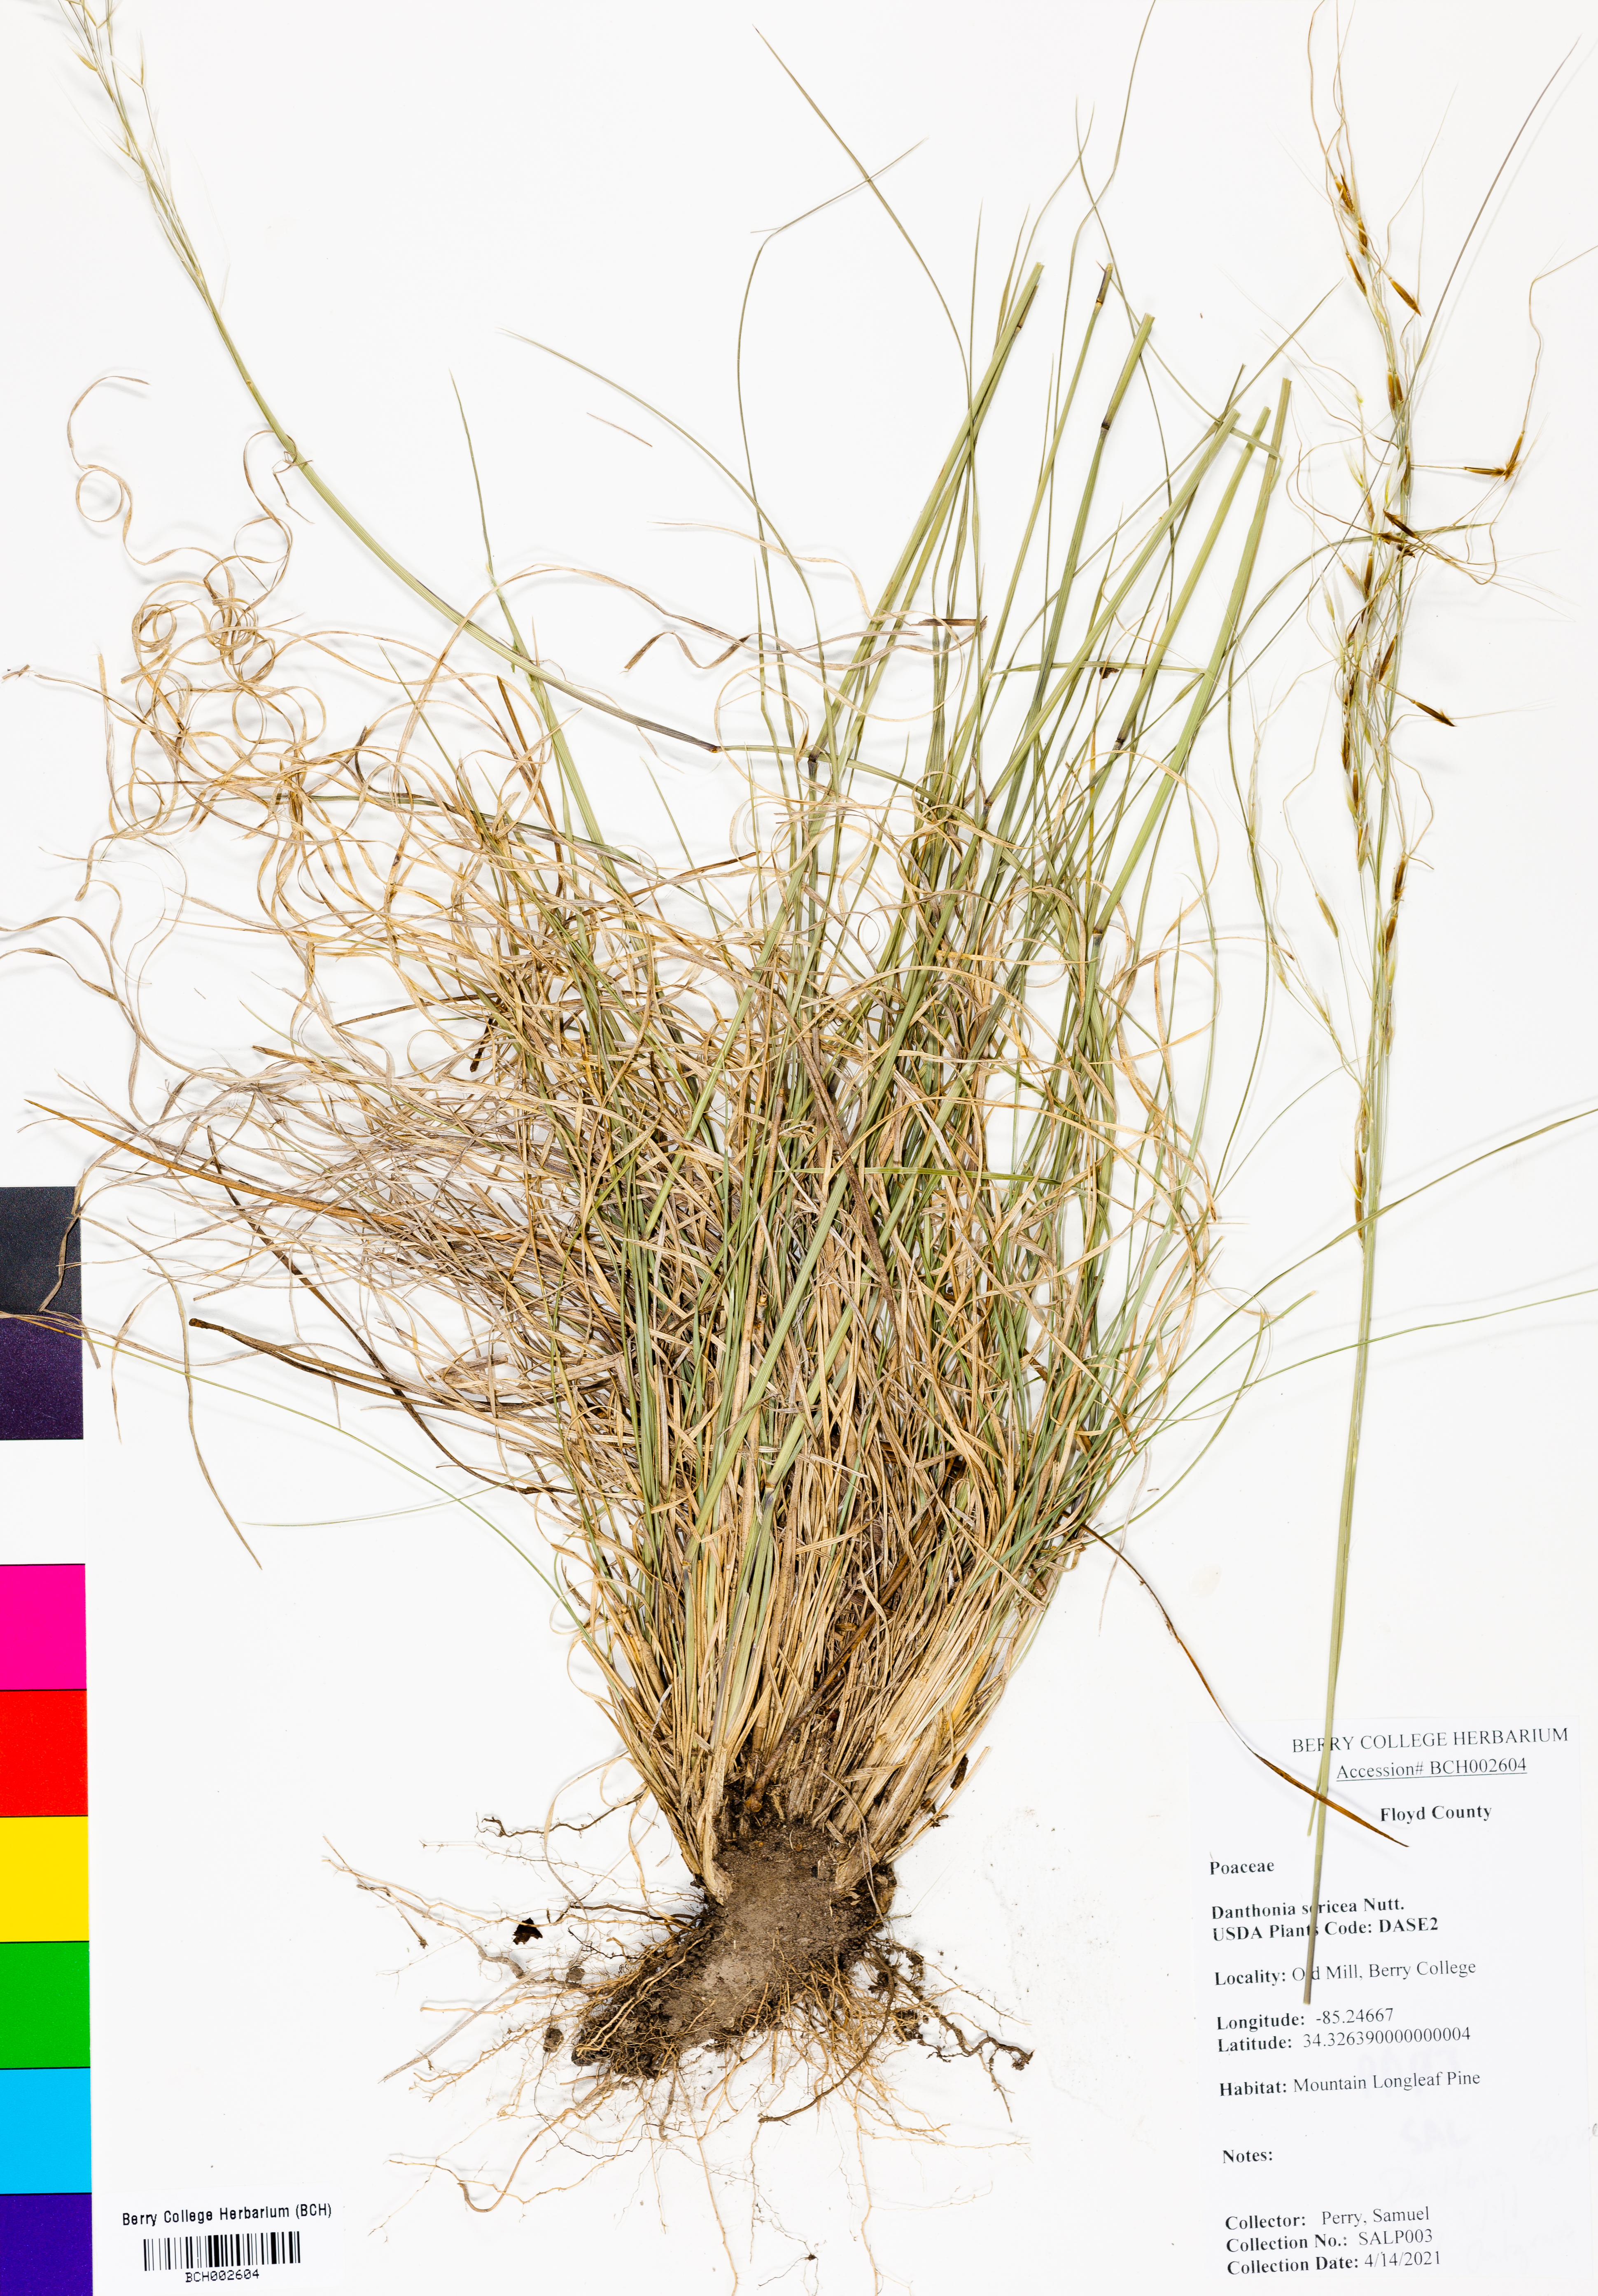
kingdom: Plantae
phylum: Tracheophyta
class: Liliopsida
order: Poales
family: Poaceae
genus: Danthonia
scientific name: Danthonia sericea
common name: Downy danthonia
